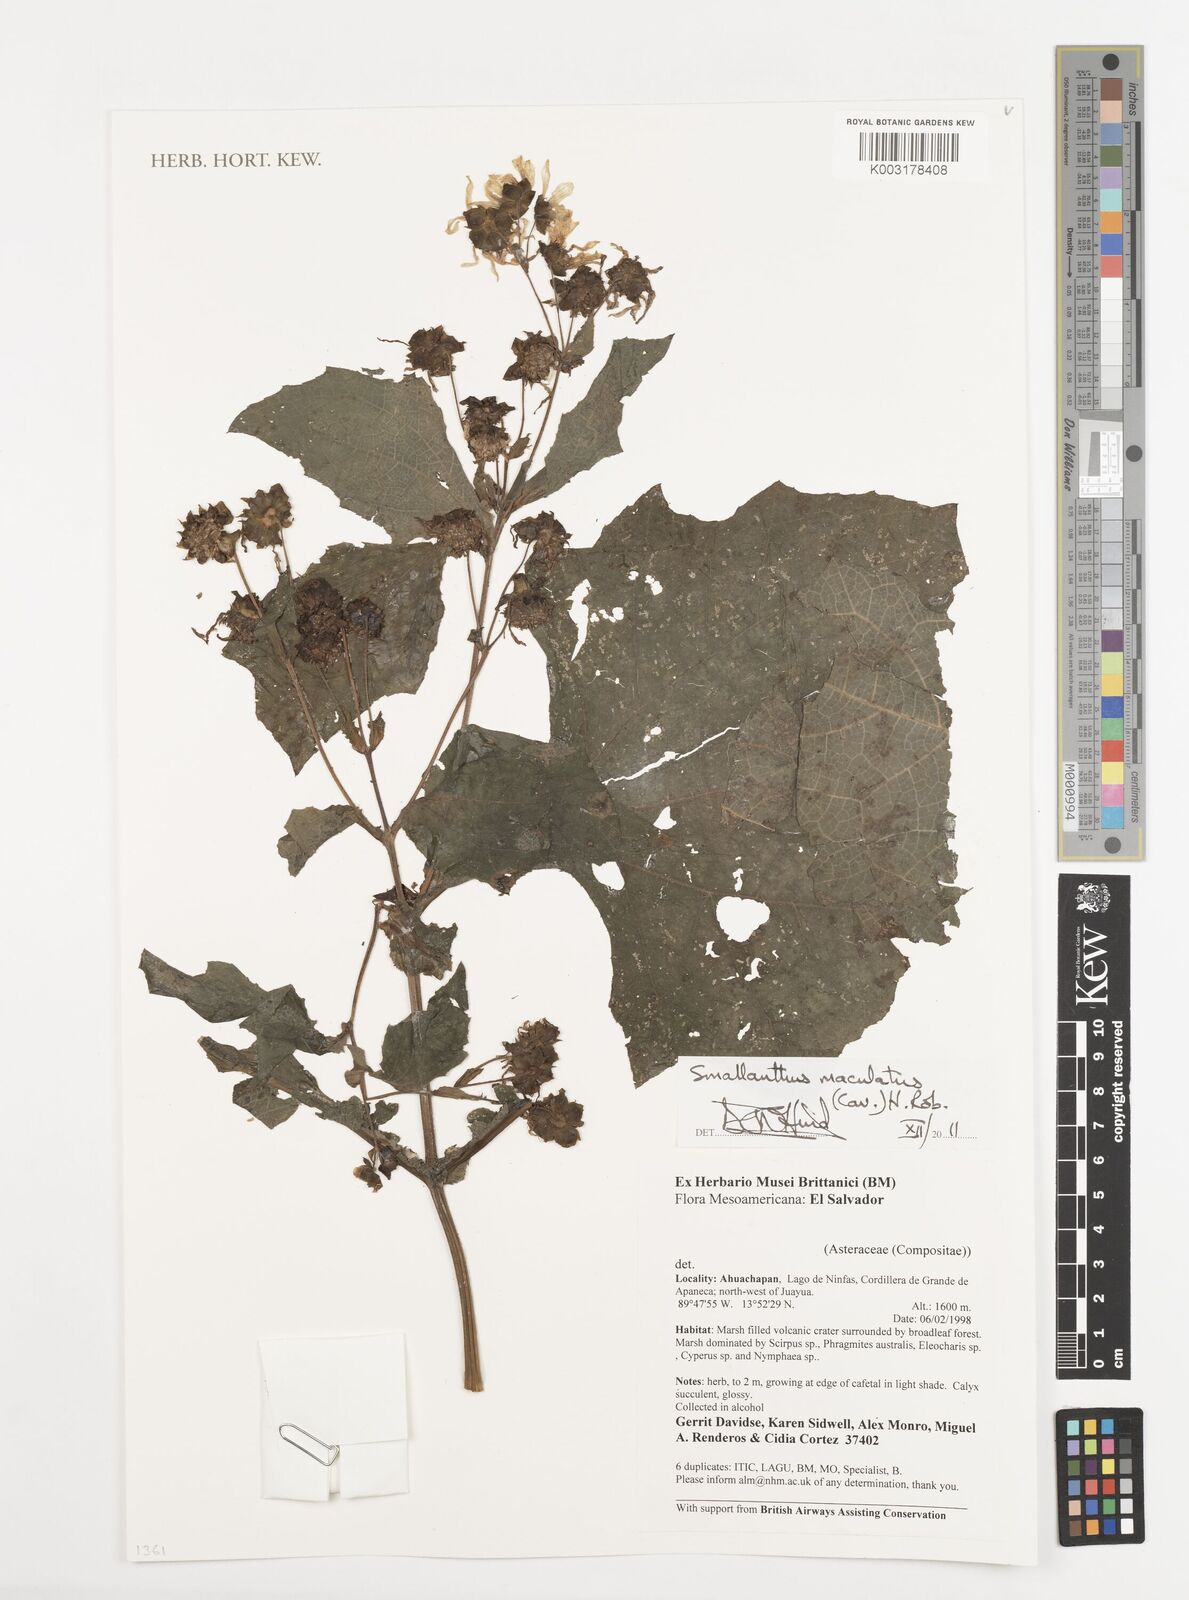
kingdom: Plantae
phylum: Tracheophyta
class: Magnoliopsida
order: Asterales
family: Asteraceae
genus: Smallanthus
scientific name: Smallanthus maculatus
